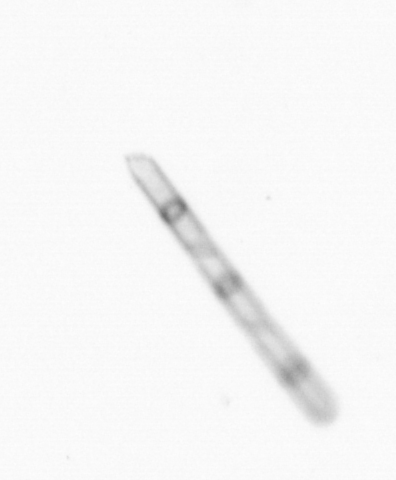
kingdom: Chromista
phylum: Ochrophyta
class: Bacillariophyceae
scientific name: Bacillariophyceae
